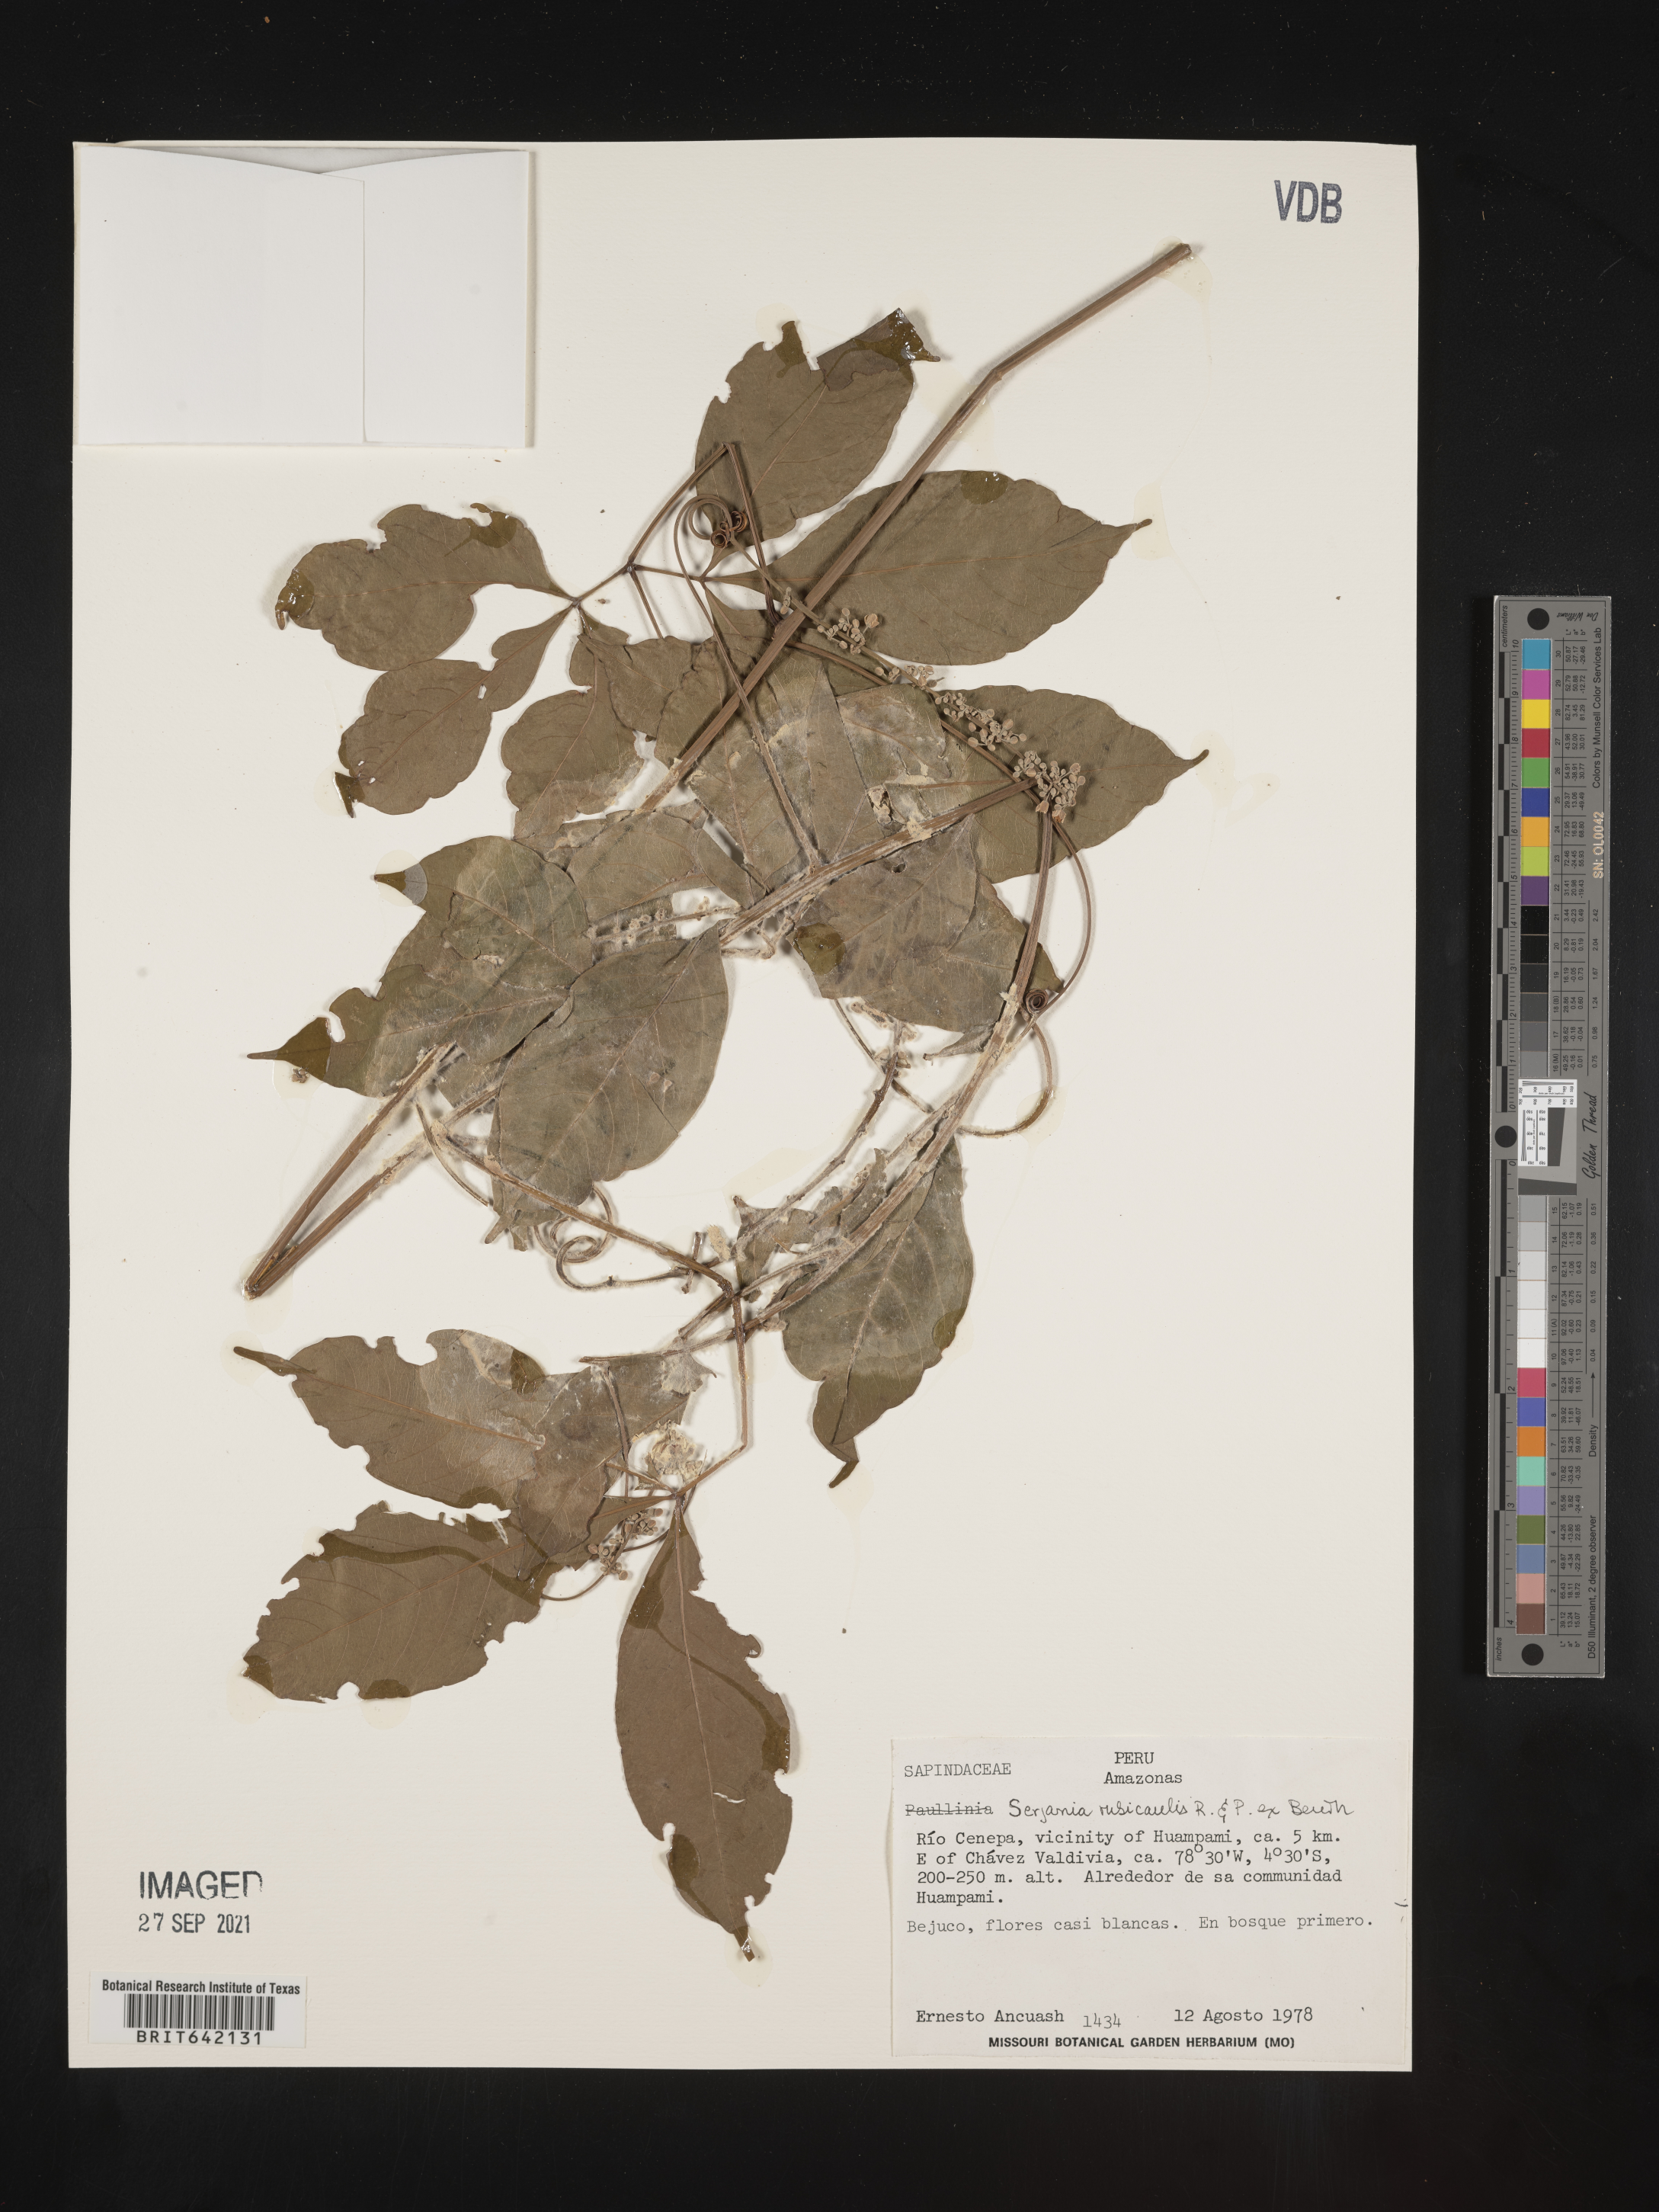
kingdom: Plantae
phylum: Tracheophyta
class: Magnoliopsida
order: Sapindales
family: Sapindaceae
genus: Serjania
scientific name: Serjania
